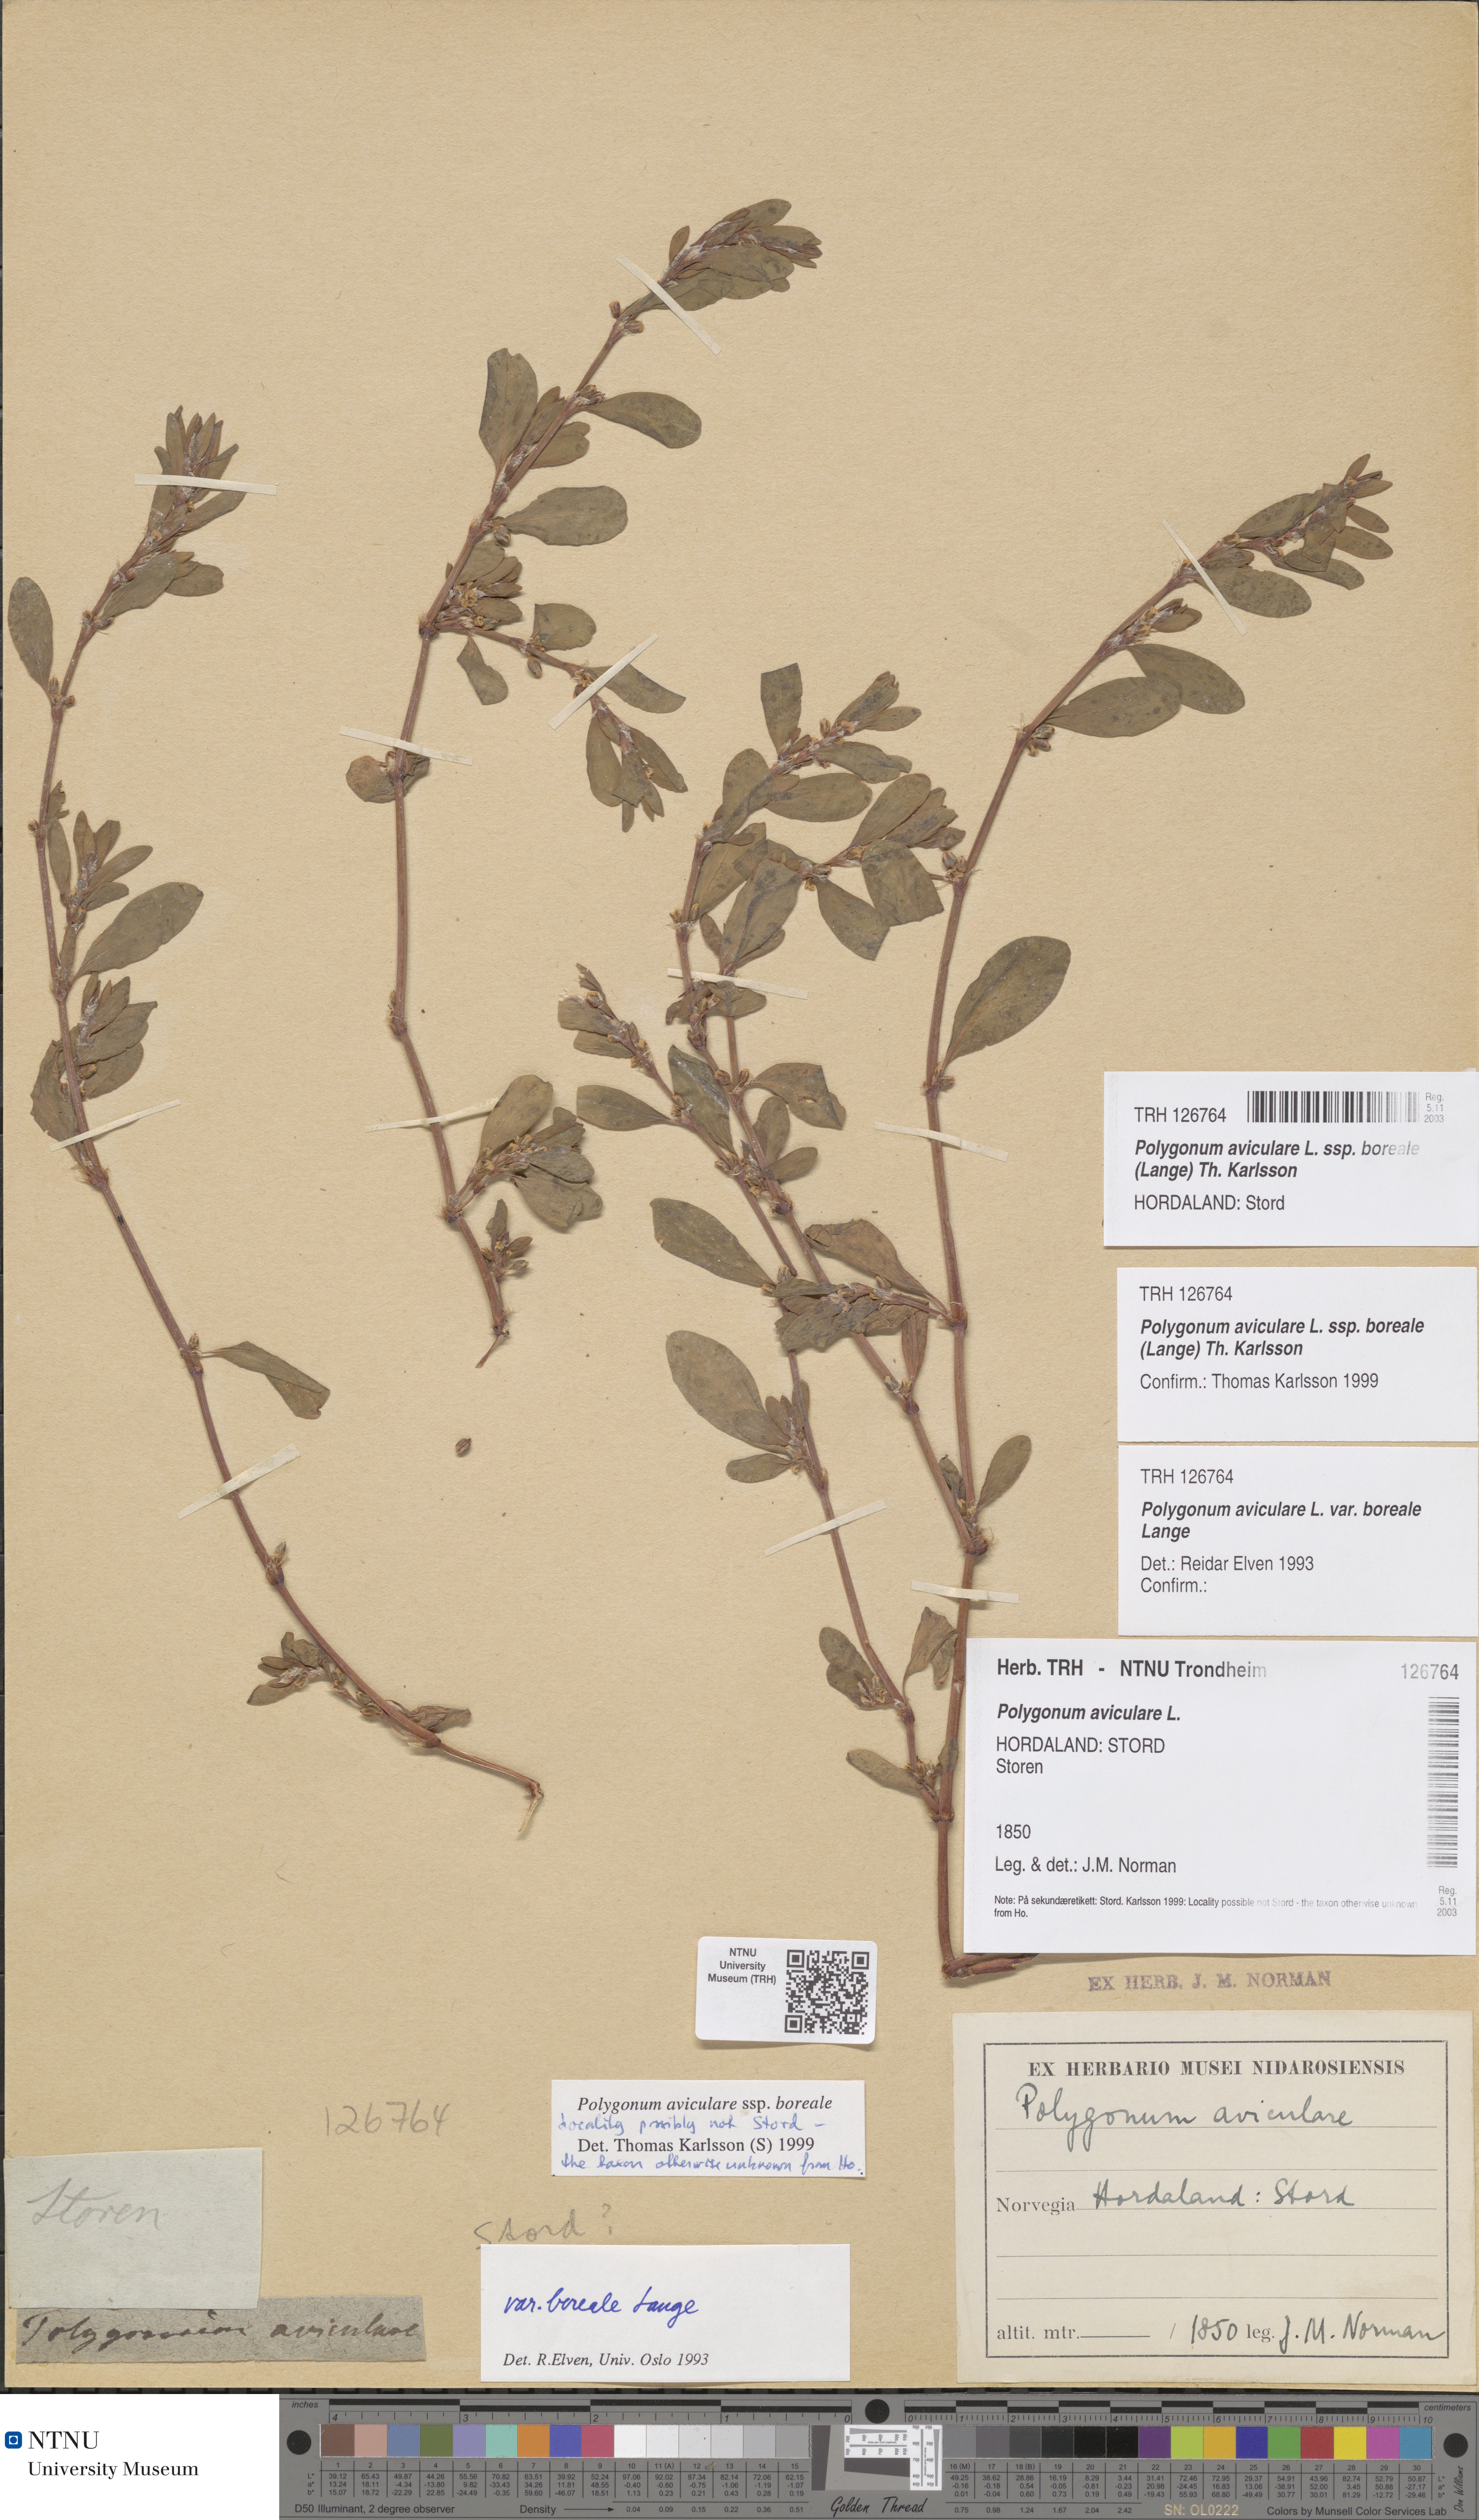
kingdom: Plantae
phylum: Tracheophyta
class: Magnoliopsida
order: Saxifragales
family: Saxifragaceae
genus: Saxifraga
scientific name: Saxifraga aizoides
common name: Yellow mountain saxifrage
